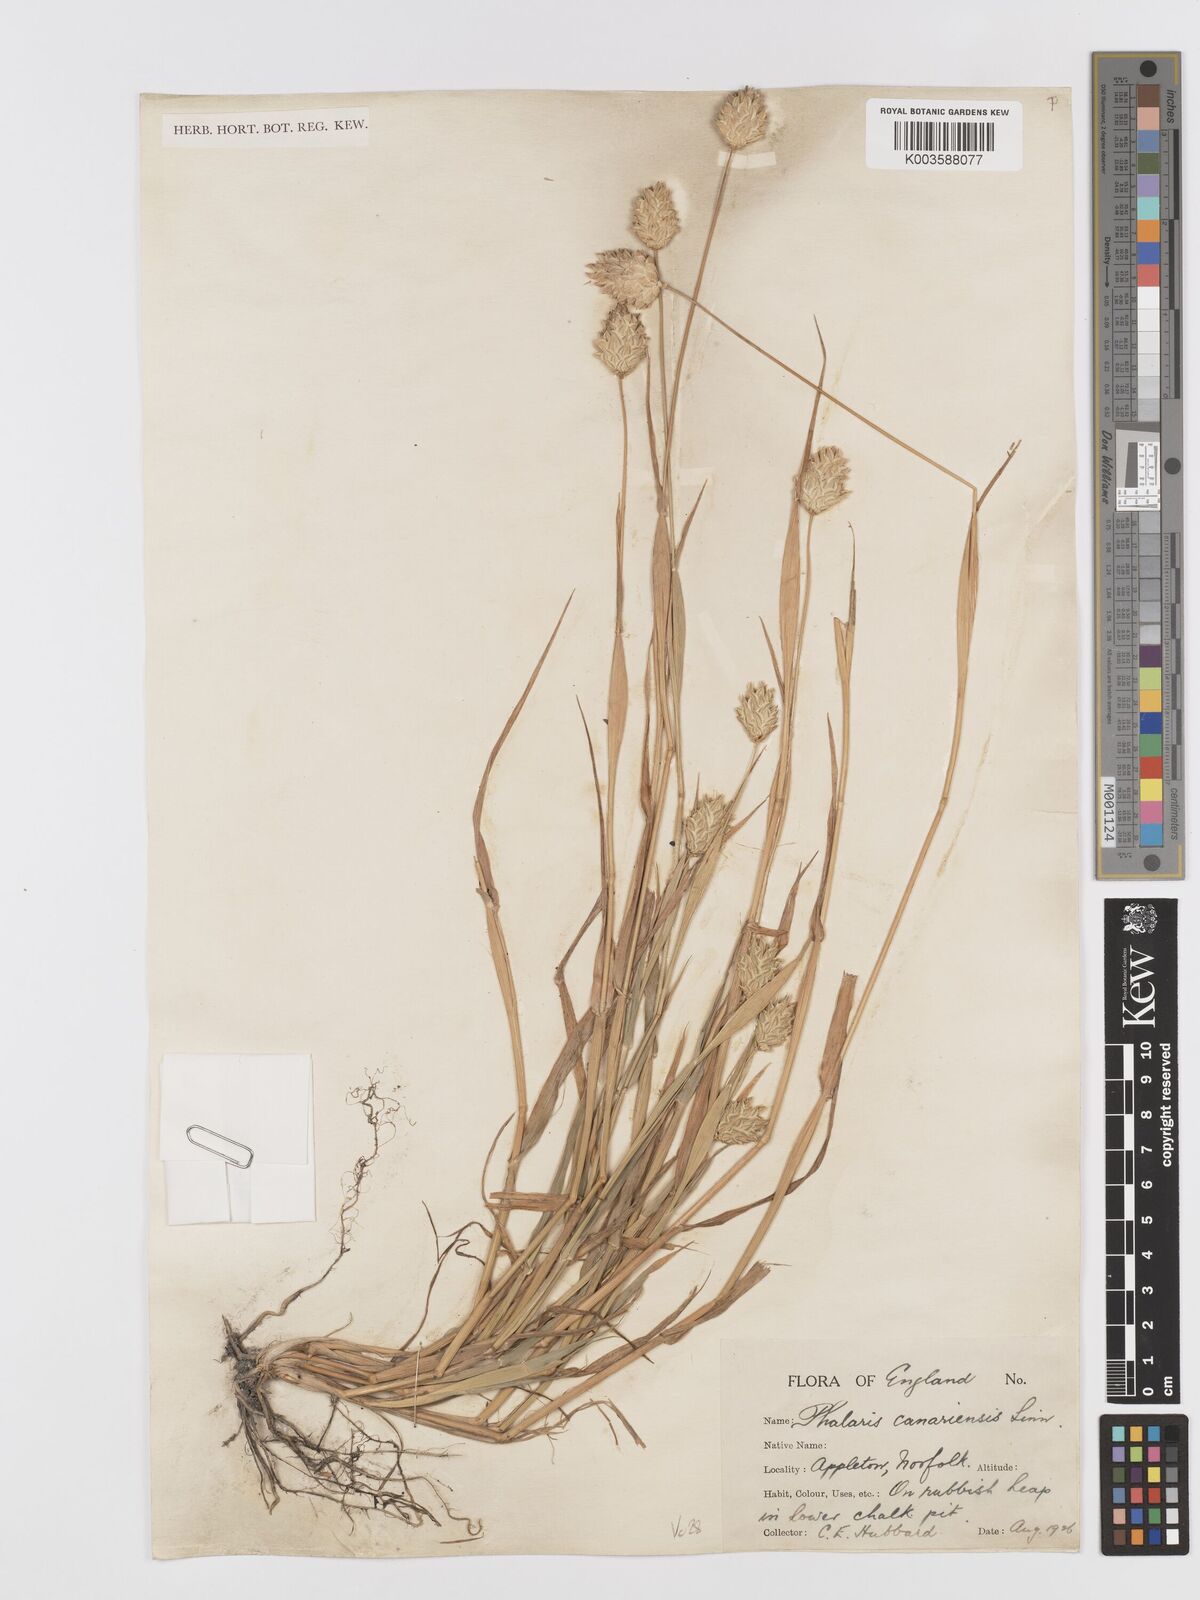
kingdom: Plantae
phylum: Tracheophyta
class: Liliopsida
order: Poales
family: Poaceae
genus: Phalaris
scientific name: Phalaris canariensis
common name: Annual canarygrass
